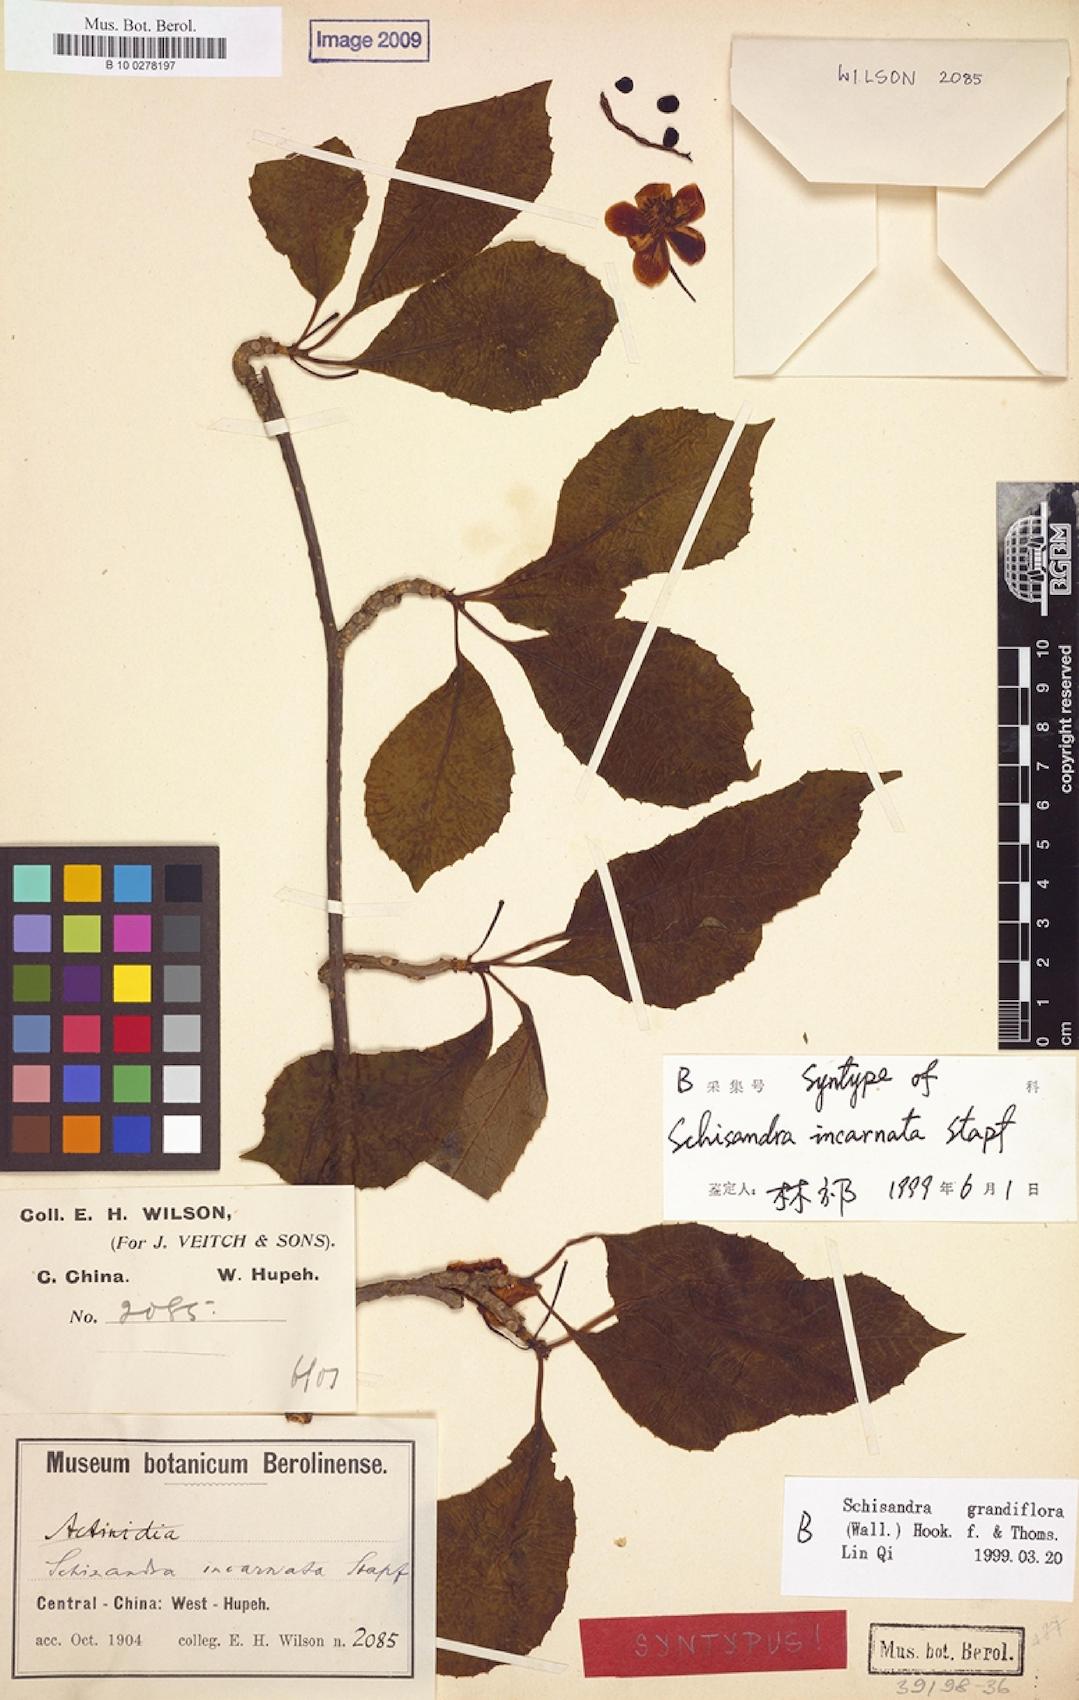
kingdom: Plantae
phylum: Tracheophyta
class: Magnoliopsida
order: Austrobaileyales
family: Schisandraceae
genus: Schisandra
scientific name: Schisandra grandiflora
